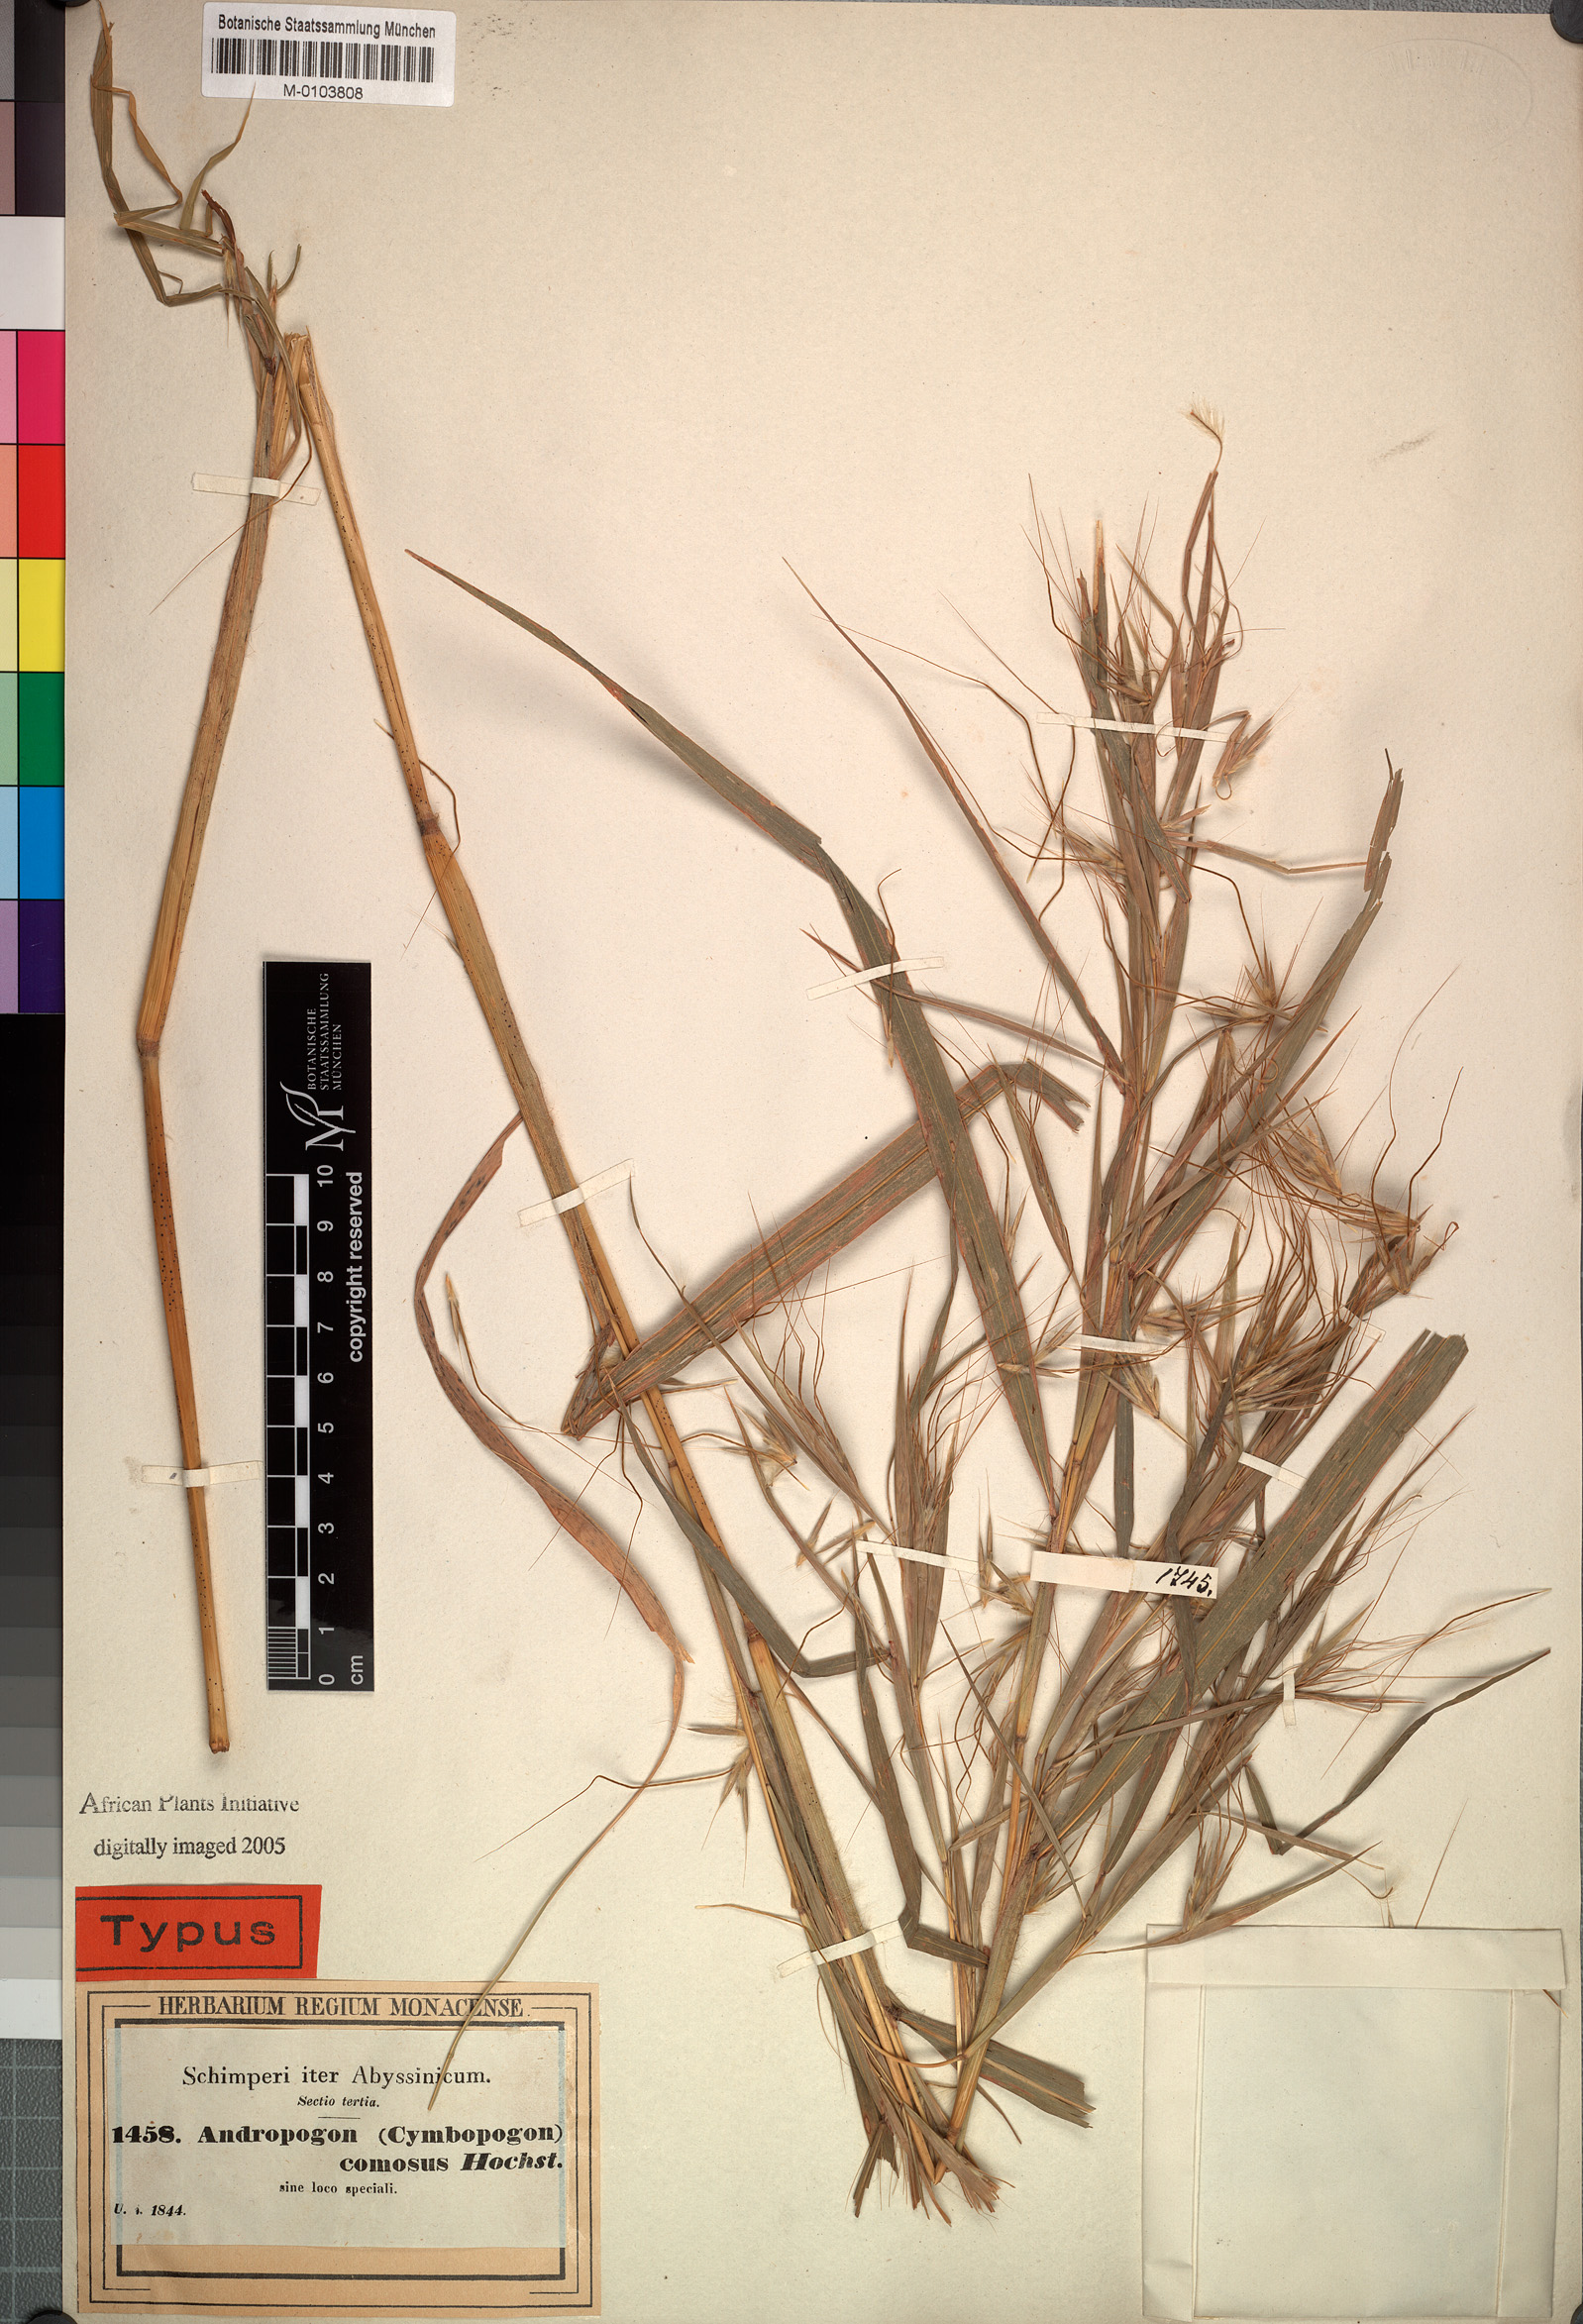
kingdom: Plantae
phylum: Tracheophyta
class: Liliopsida
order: Poales
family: Poaceae
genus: Hyparrhenia
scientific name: Hyparrhenia coleotricha
